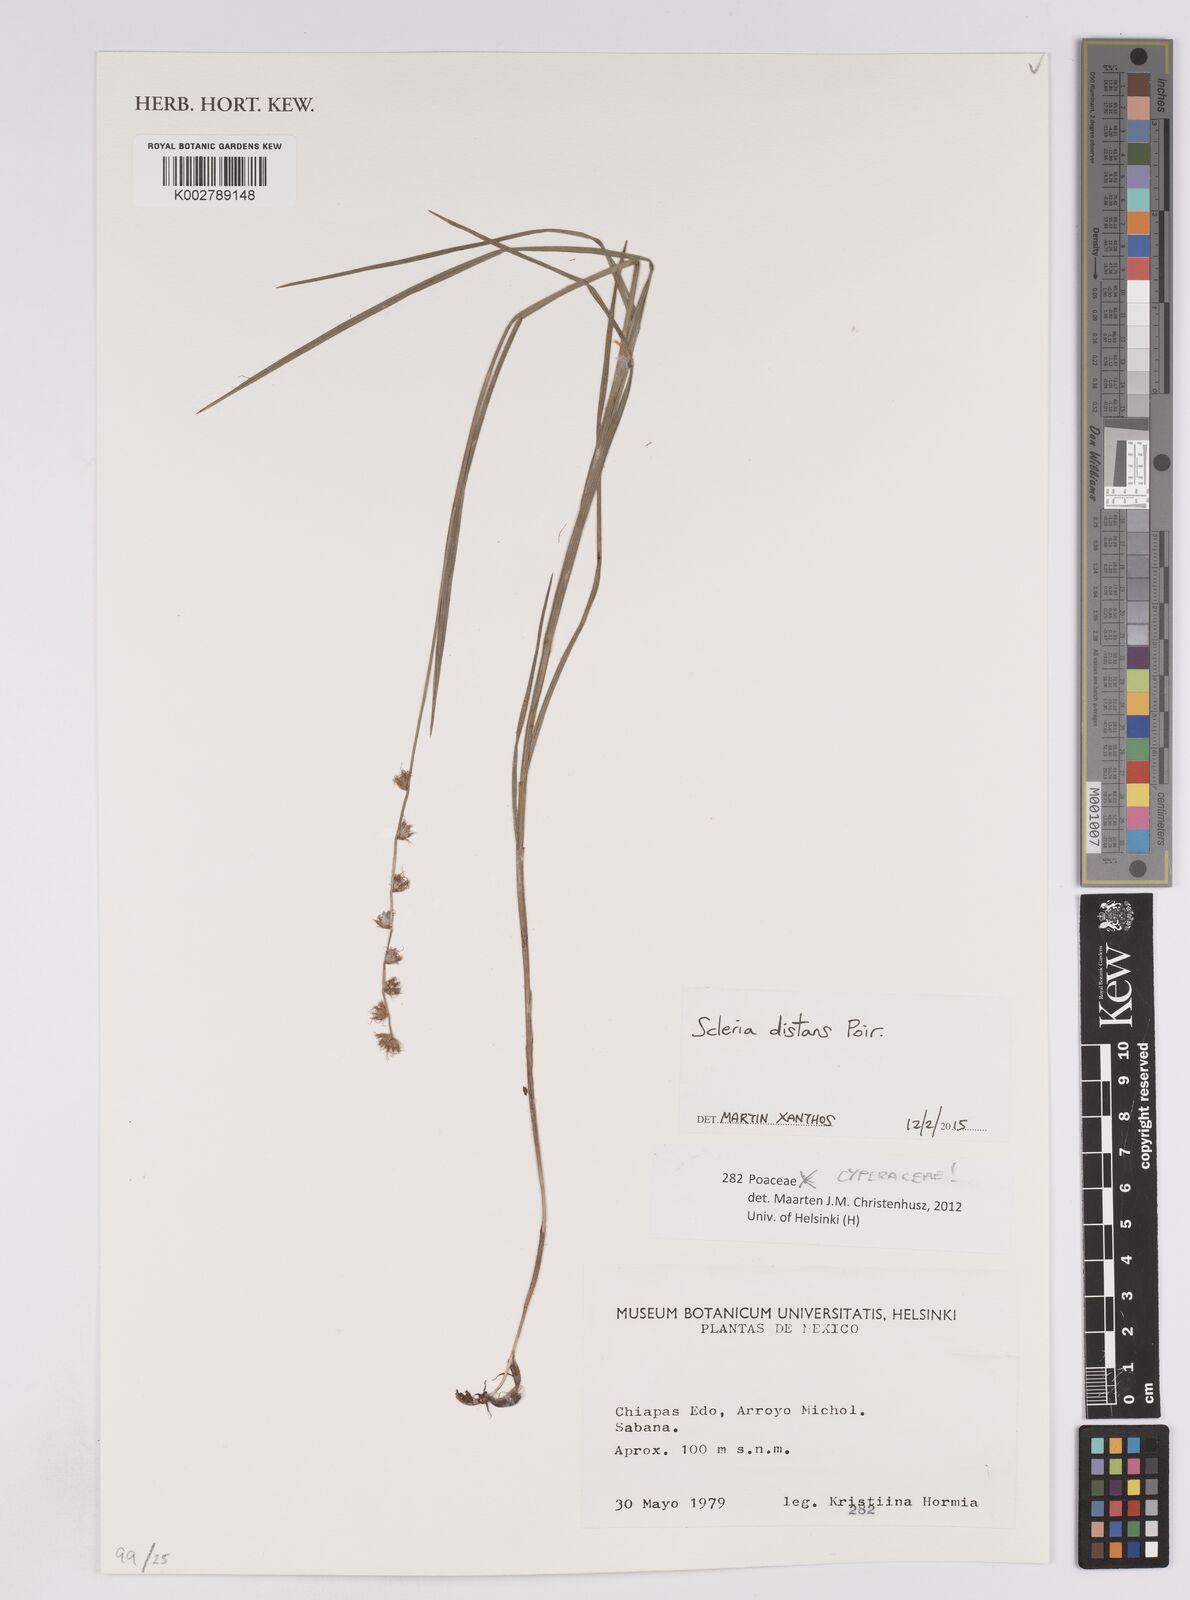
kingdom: Plantae
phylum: Tracheophyta
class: Liliopsida
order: Poales
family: Cyperaceae
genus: Scleria
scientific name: Scleria distans
